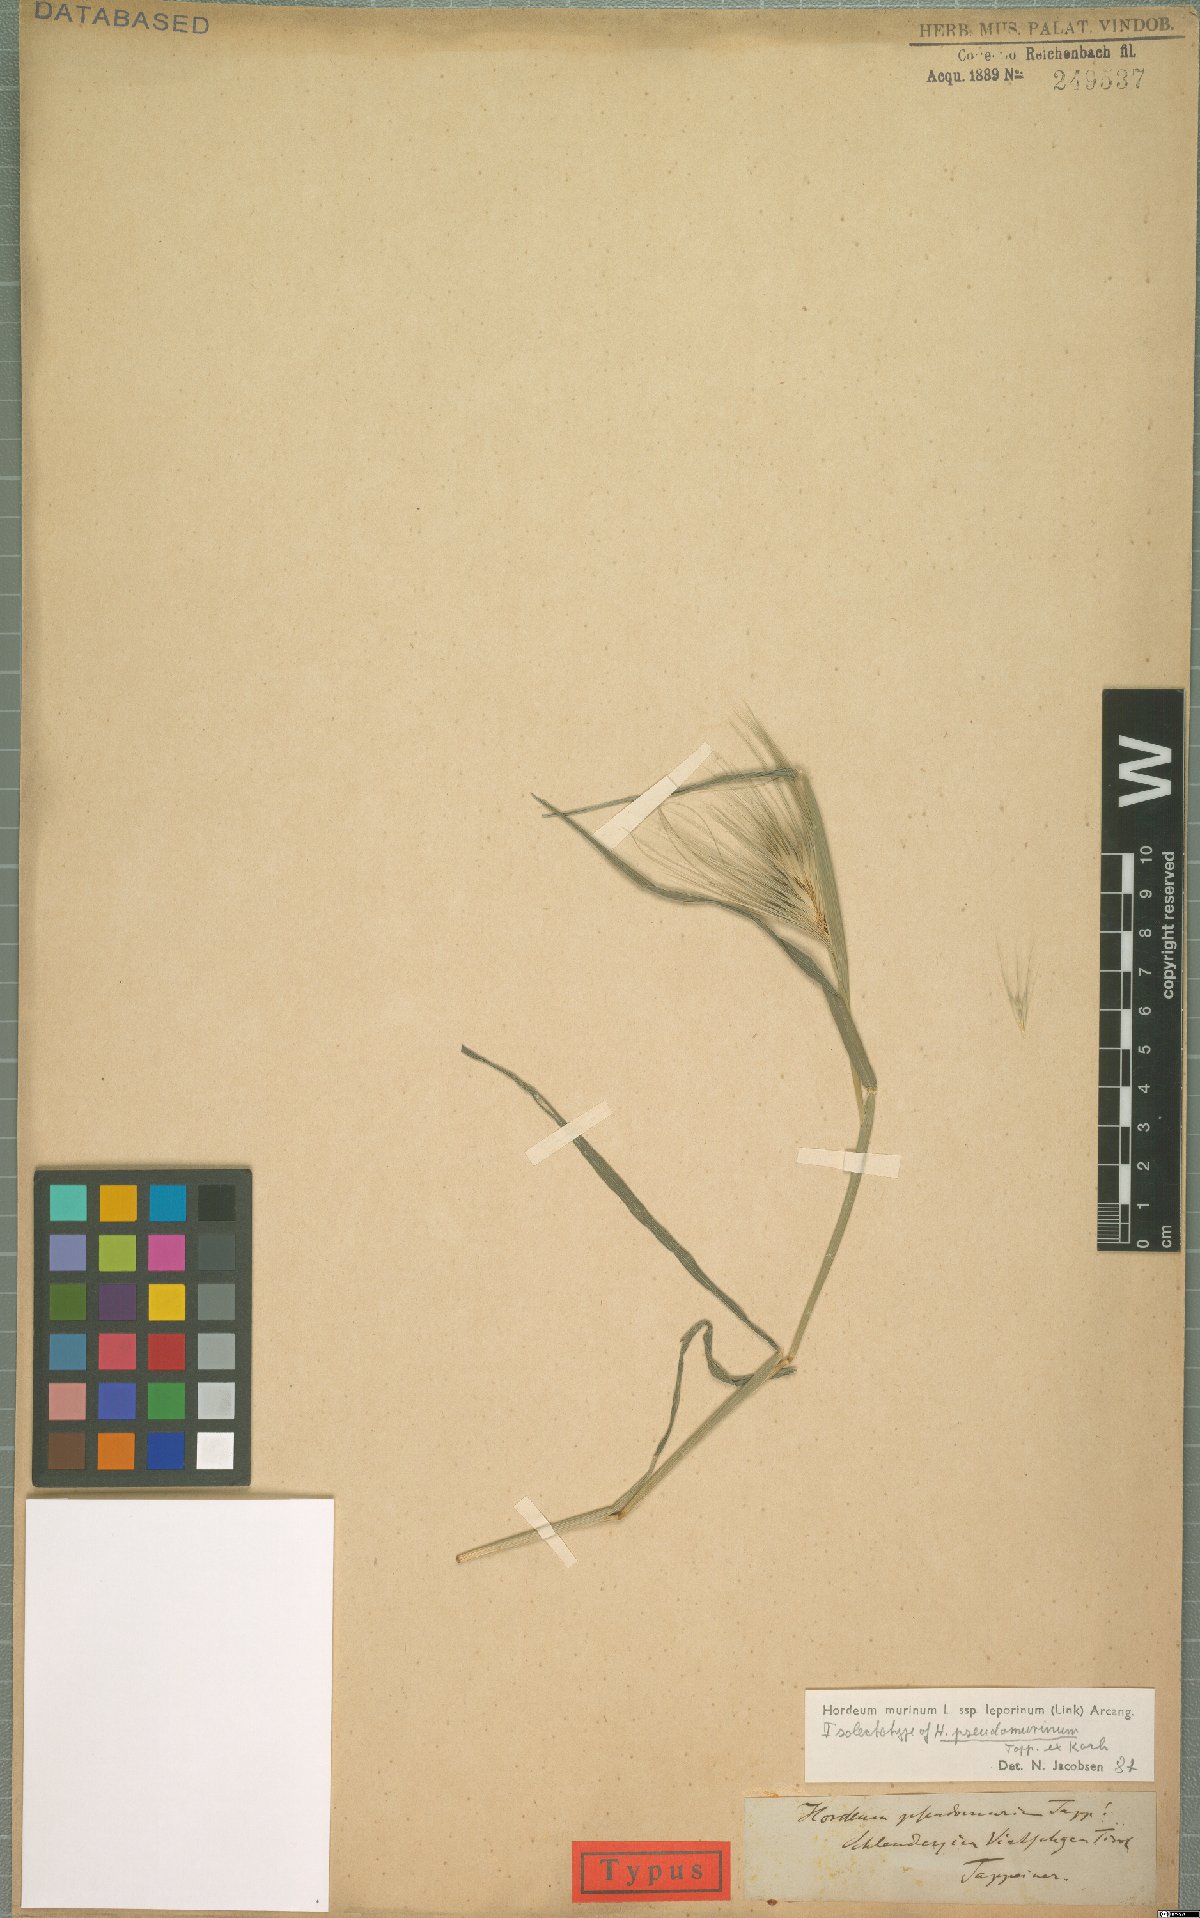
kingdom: Plantae
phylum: Tracheophyta
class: Liliopsida
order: Poales
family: Poaceae
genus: Hordeum
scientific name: Hordeum murinum
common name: Wall barley
